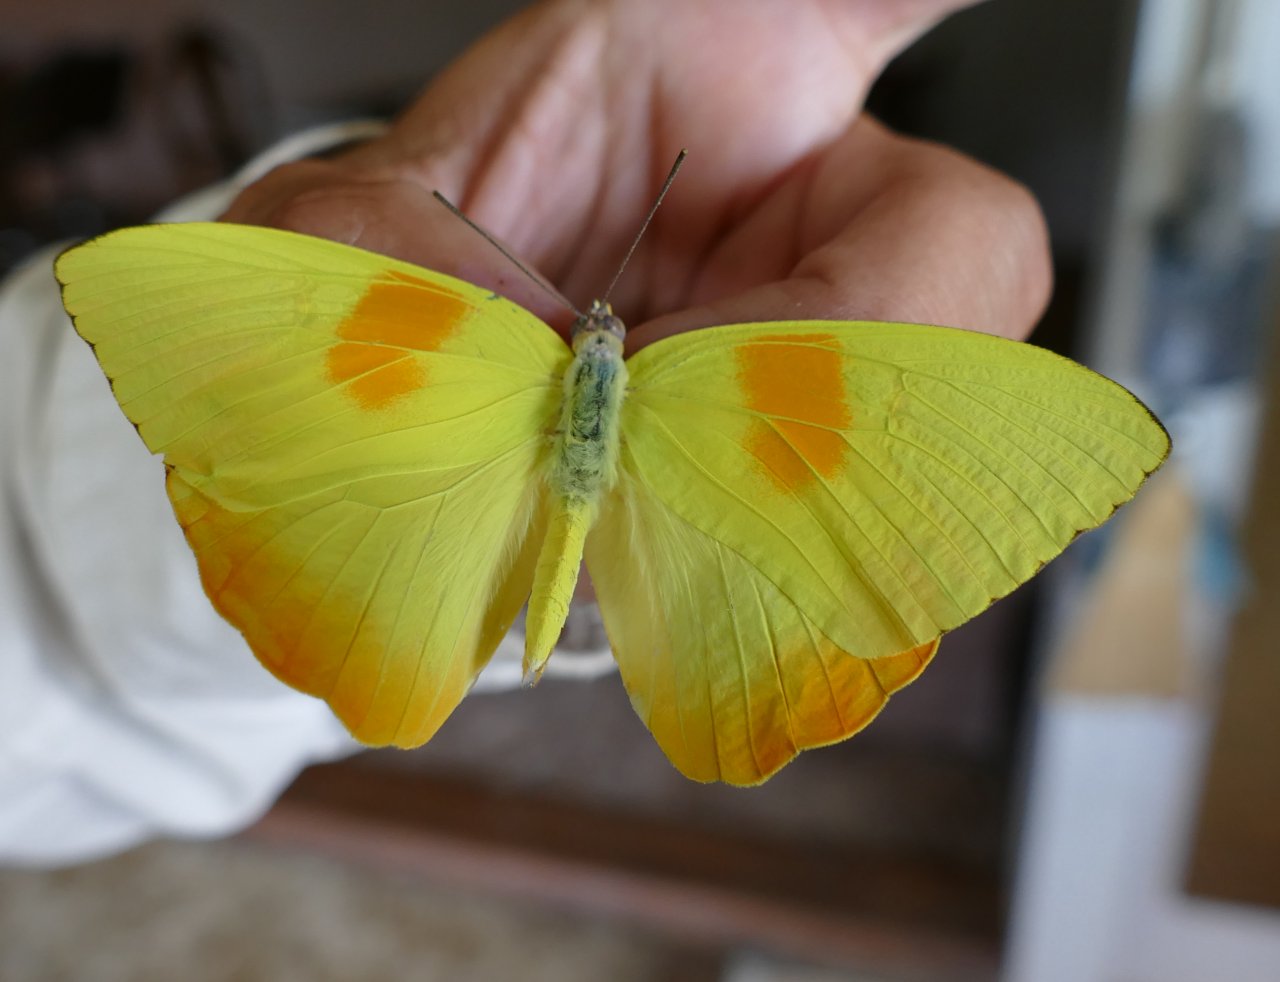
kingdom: Animalia
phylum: Arthropoda
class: Insecta
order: Lepidoptera
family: Pieridae
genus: Phoebis
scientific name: Phoebis philea
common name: Orange-barred Sulphur
